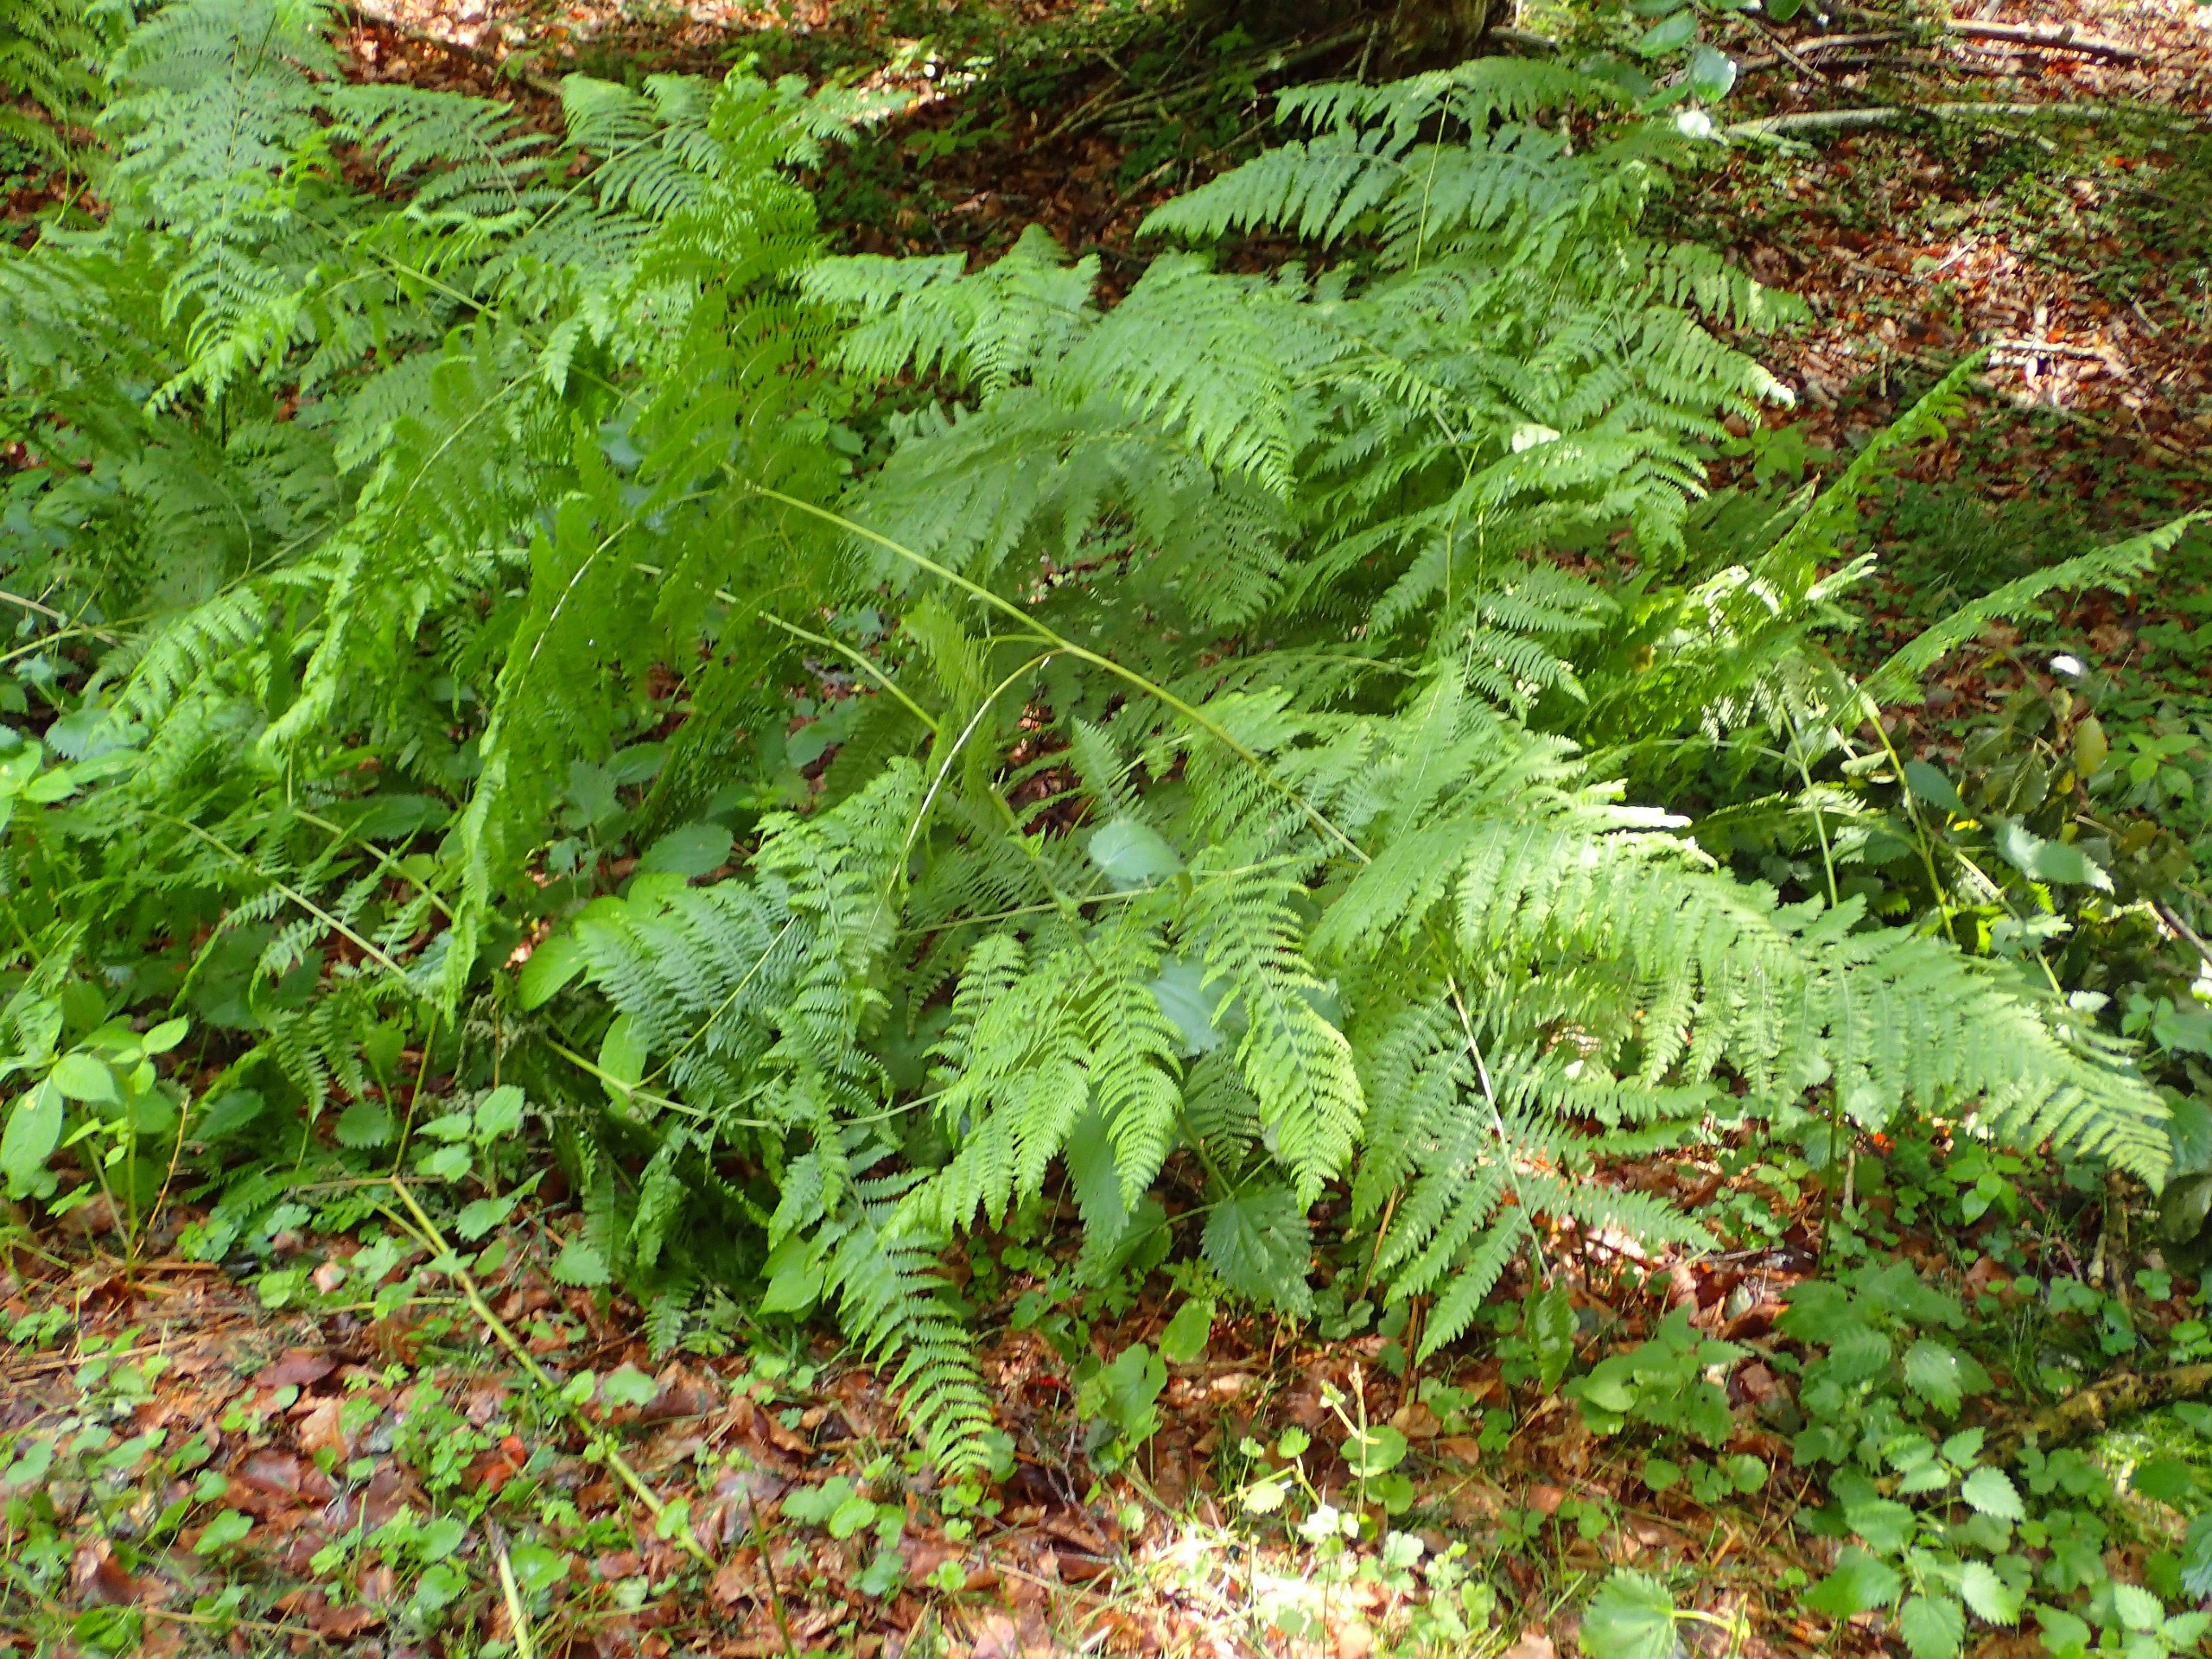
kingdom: Plantae
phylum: Tracheophyta
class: Polypodiopsida
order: Polypodiales
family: Dennstaedtiaceae
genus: Pteridium
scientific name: Pteridium aquilinum
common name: Ørnebregne
